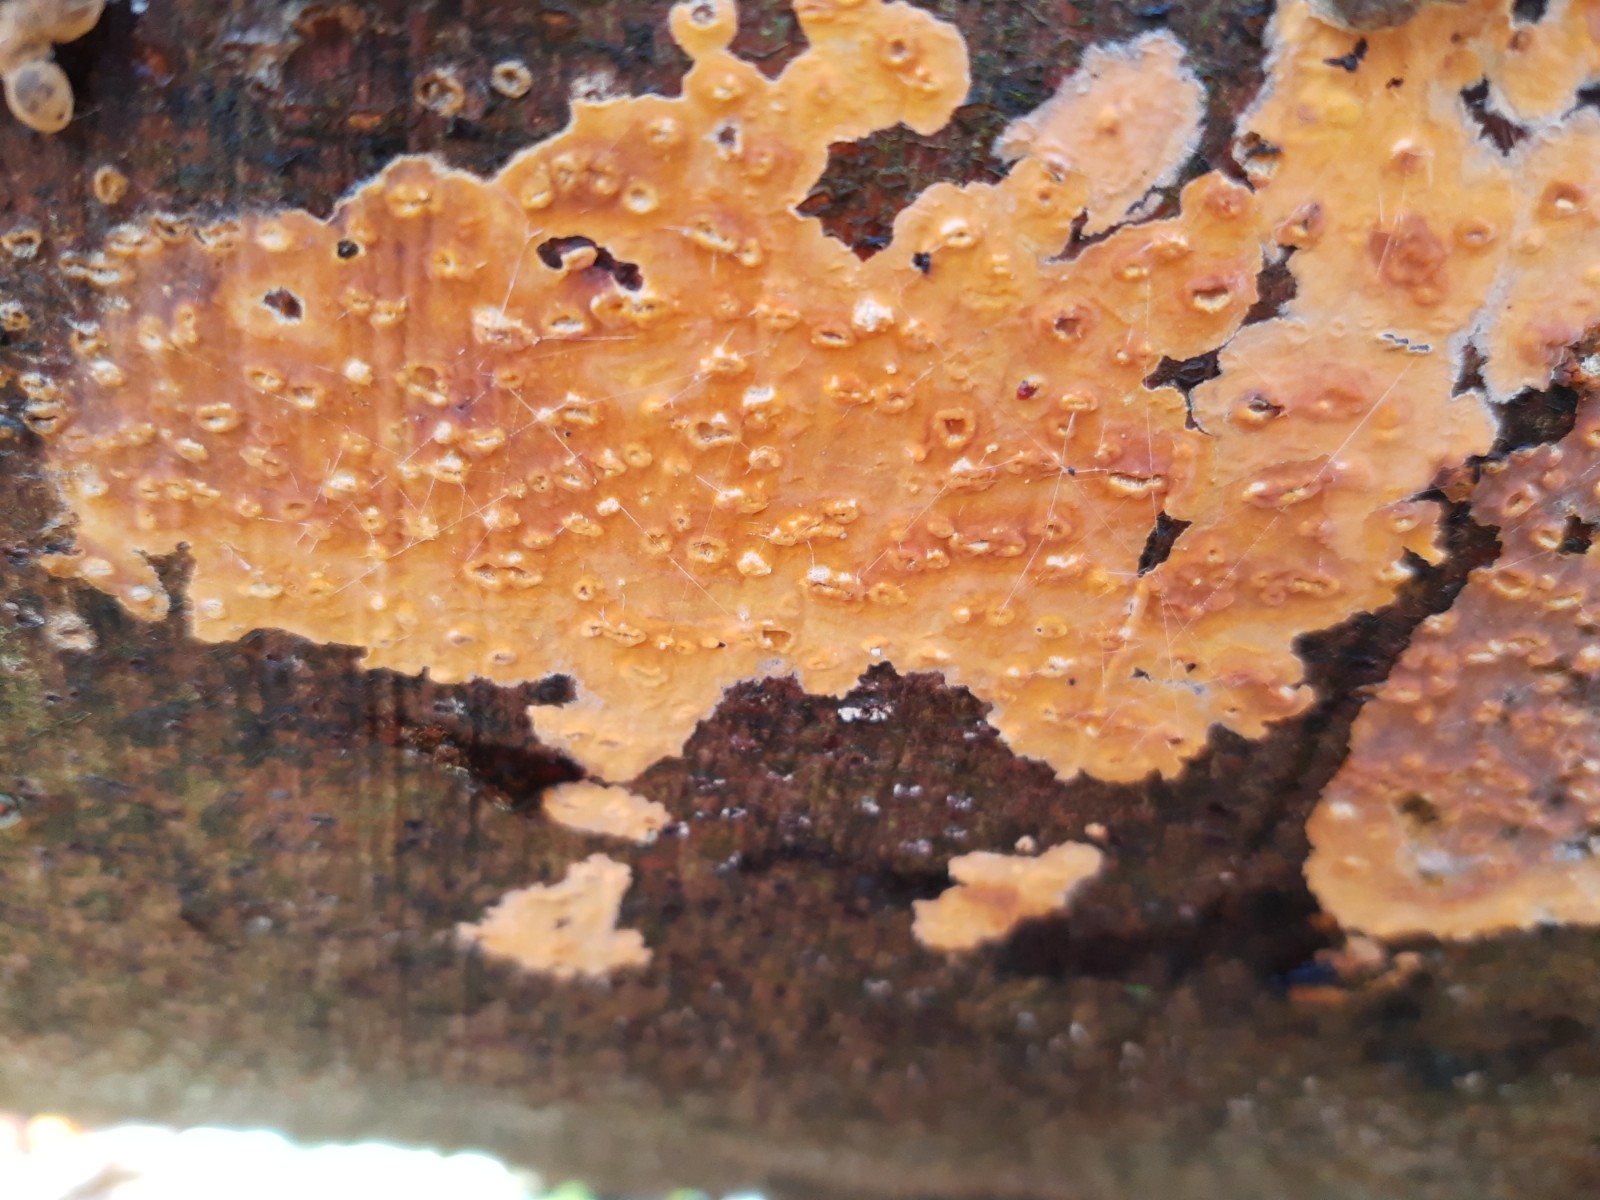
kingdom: Fungi
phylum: Basidiomycota
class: Agaricomycetes
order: Russulales
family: Peniophoraceae
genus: Peniophora
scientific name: Peniophora incarnata
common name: laksefarvet voksskind
